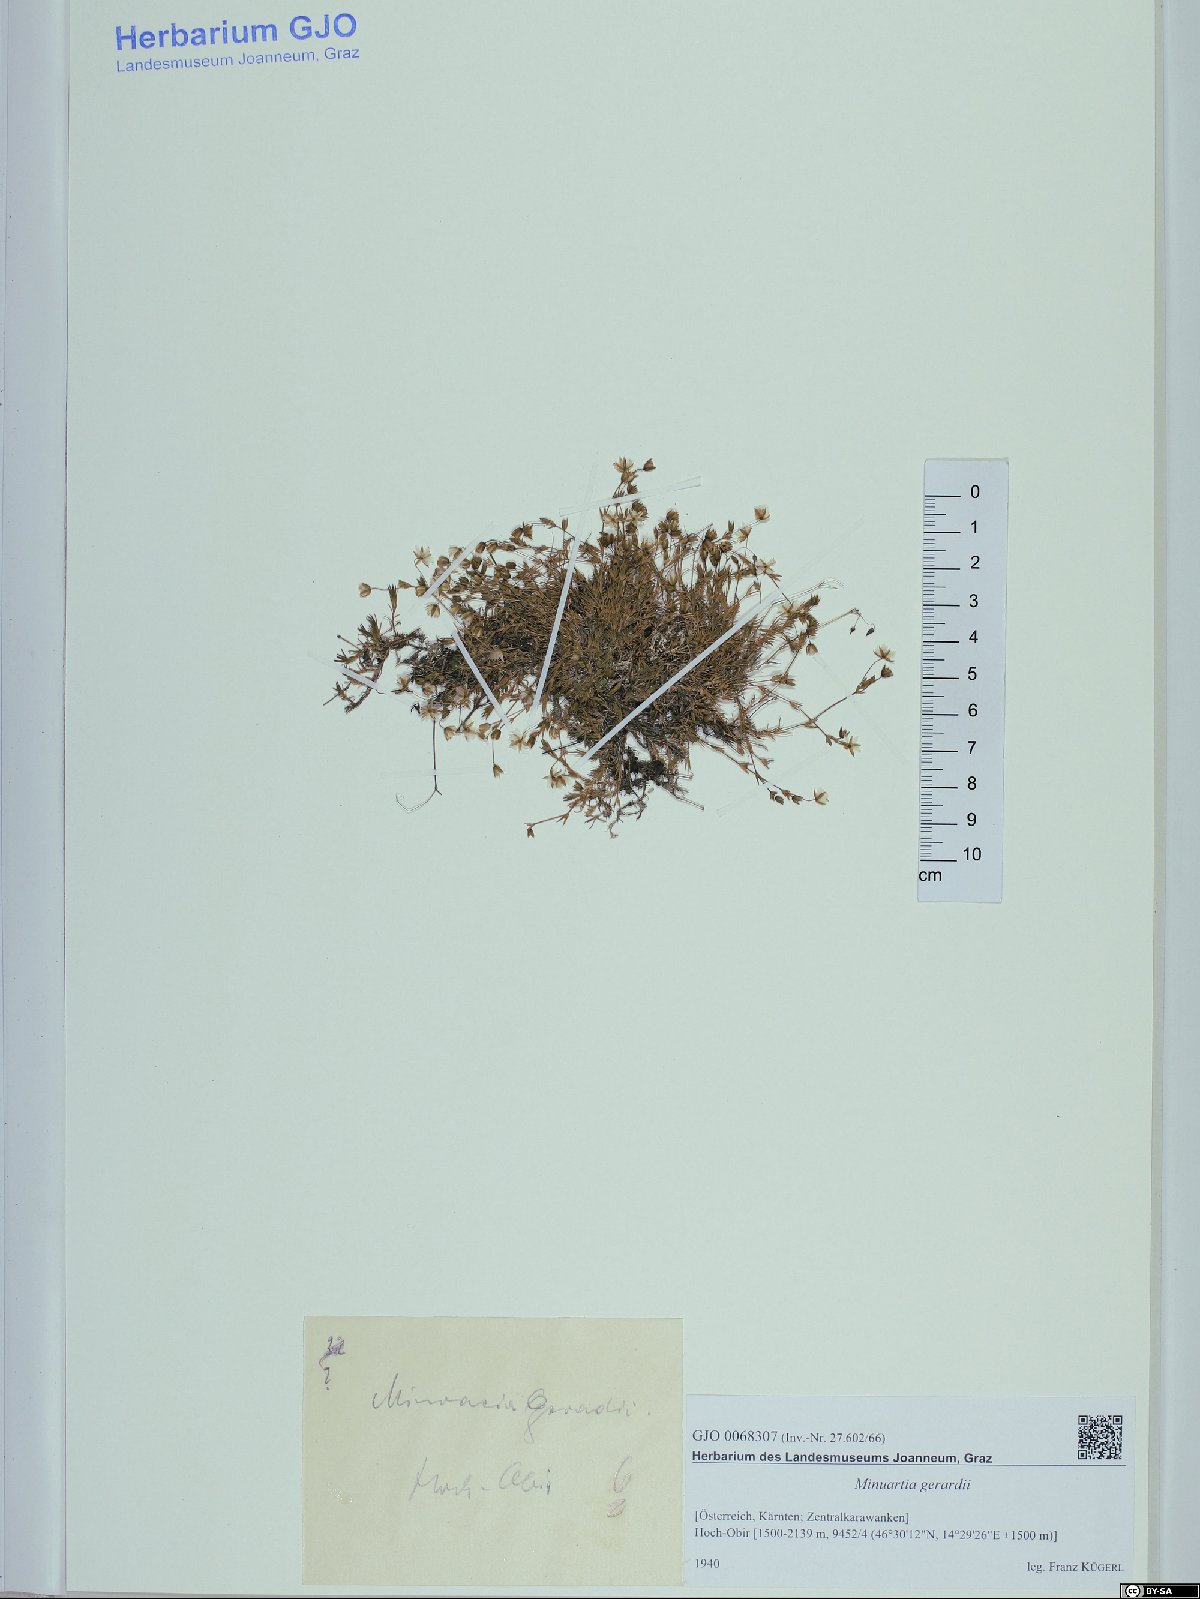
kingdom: Plantae
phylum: Tracheophyta
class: Magnoliopsida
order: Caryophyllales
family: Caryophyllaceae
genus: Sabulina
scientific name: Sabulina verna
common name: Spring sandwort
